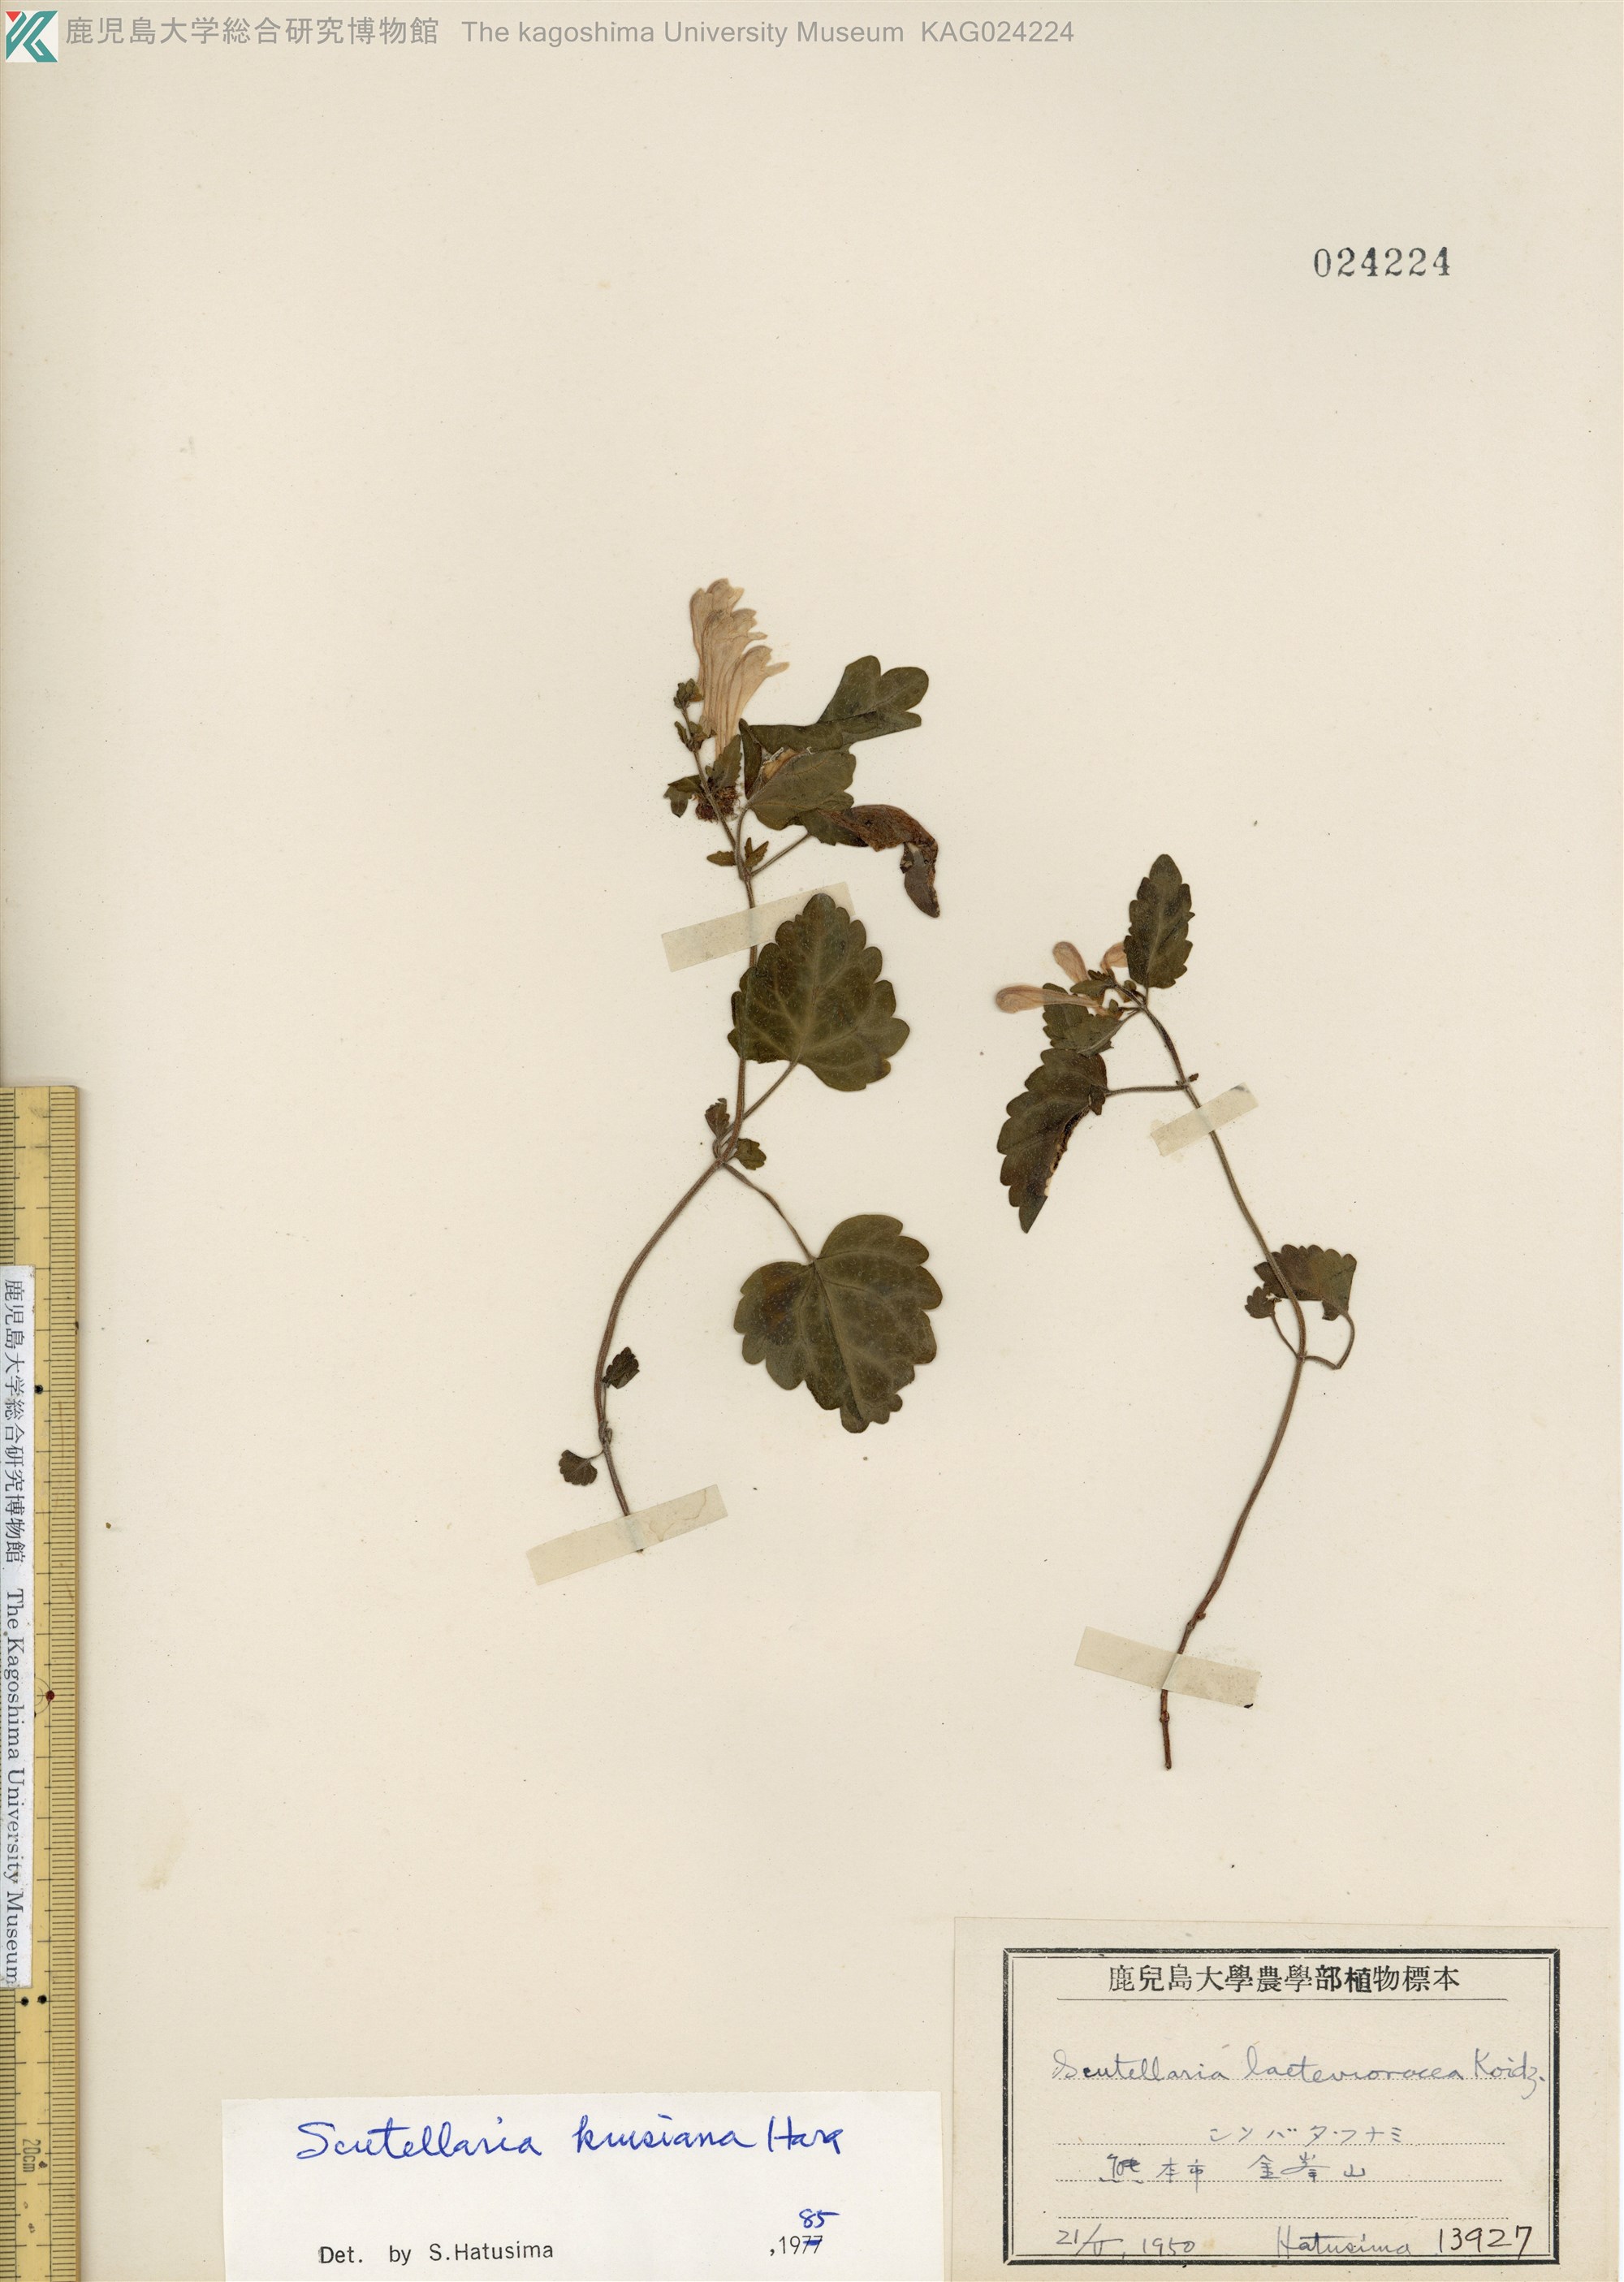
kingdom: Plantae
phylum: Tracheophyta
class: Magnoliopsida
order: Lamiales
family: Lamiaceae
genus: Scutellaria
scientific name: Scutellaria kiusiana
